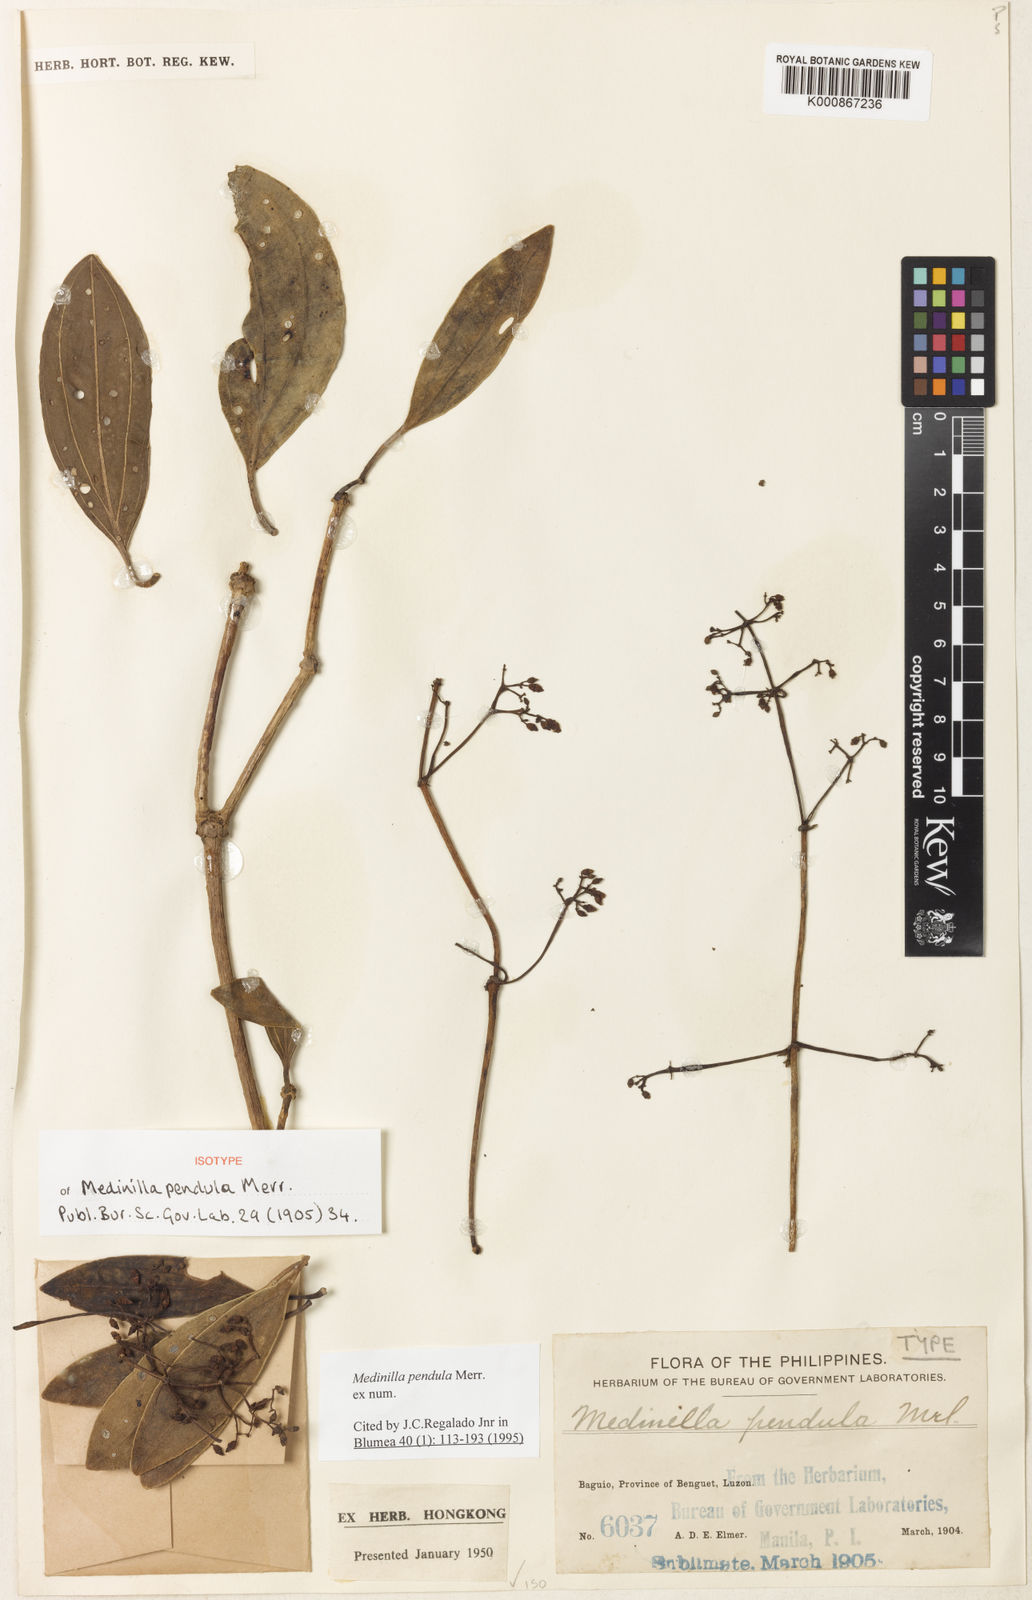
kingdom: Plantae
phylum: Tracheophyta
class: Magnoliopsida
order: Myrtales
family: Melastomataceae
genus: Medinilla
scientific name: Medinilla pendula
